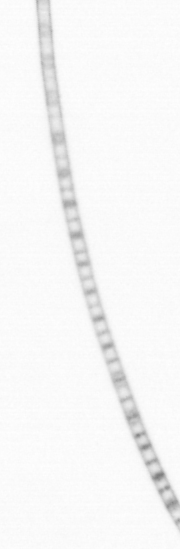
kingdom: Chromista
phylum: Ochrophyta
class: Bacillariophyceae
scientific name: Bacillariophyceae
